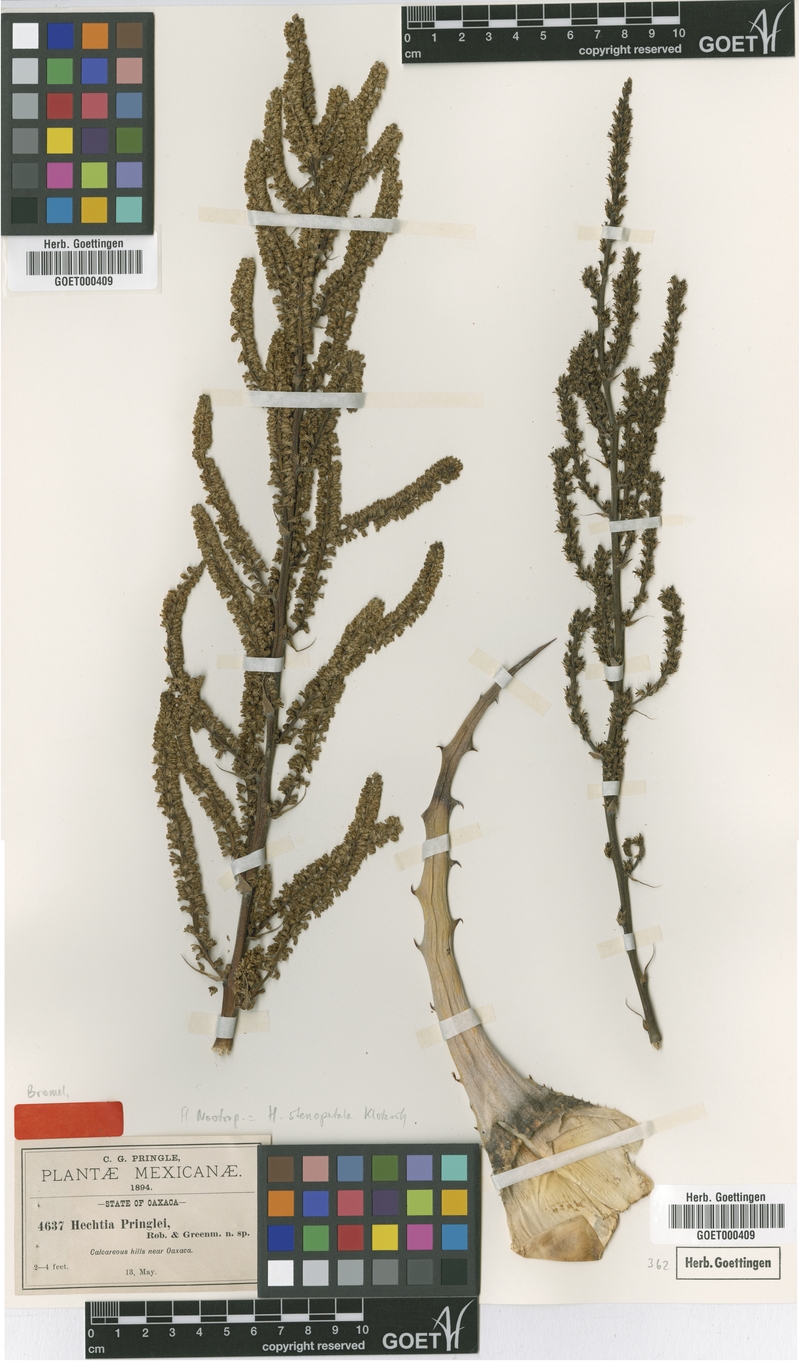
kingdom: Plantae
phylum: Tracheophyta
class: Liliopsida
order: Poales
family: Bromeliaceae
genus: Hechtia
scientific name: Hechtia stenopetala
